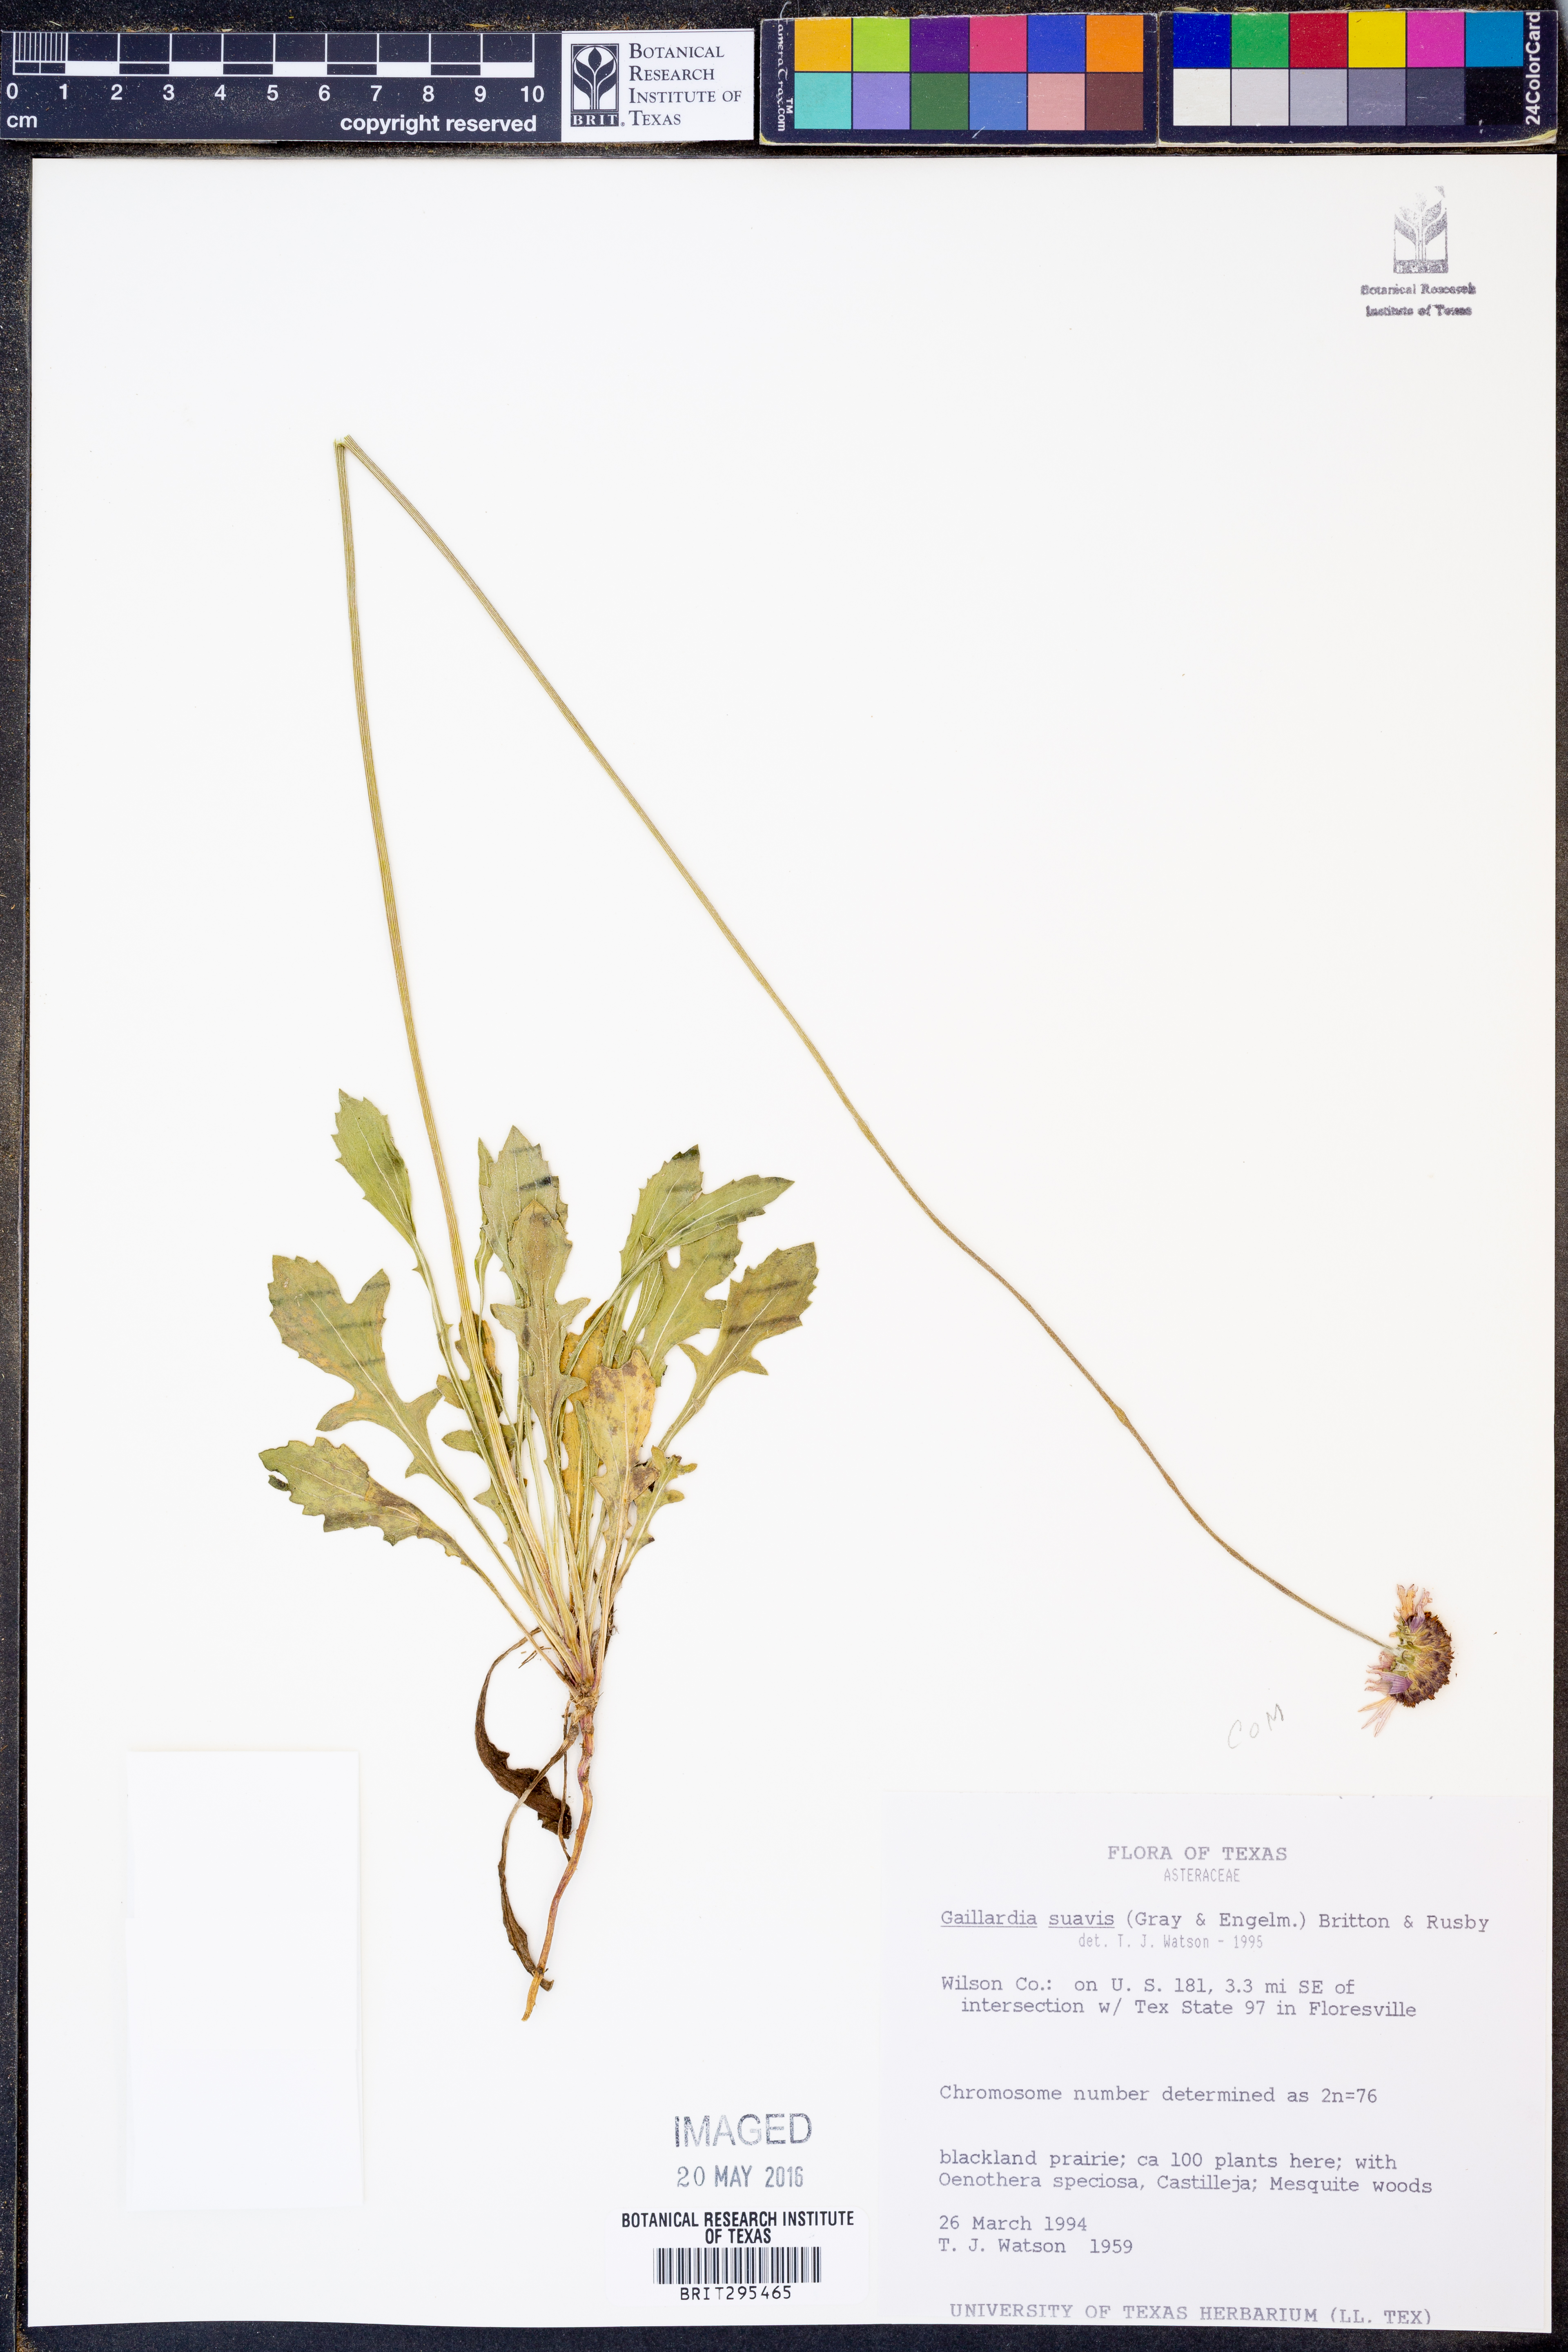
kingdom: Plantae
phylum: Tracheophyta
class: Magnoliopsida
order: Asterales
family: Asteraceae
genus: Gaillardia
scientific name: Gaillardia suavis
